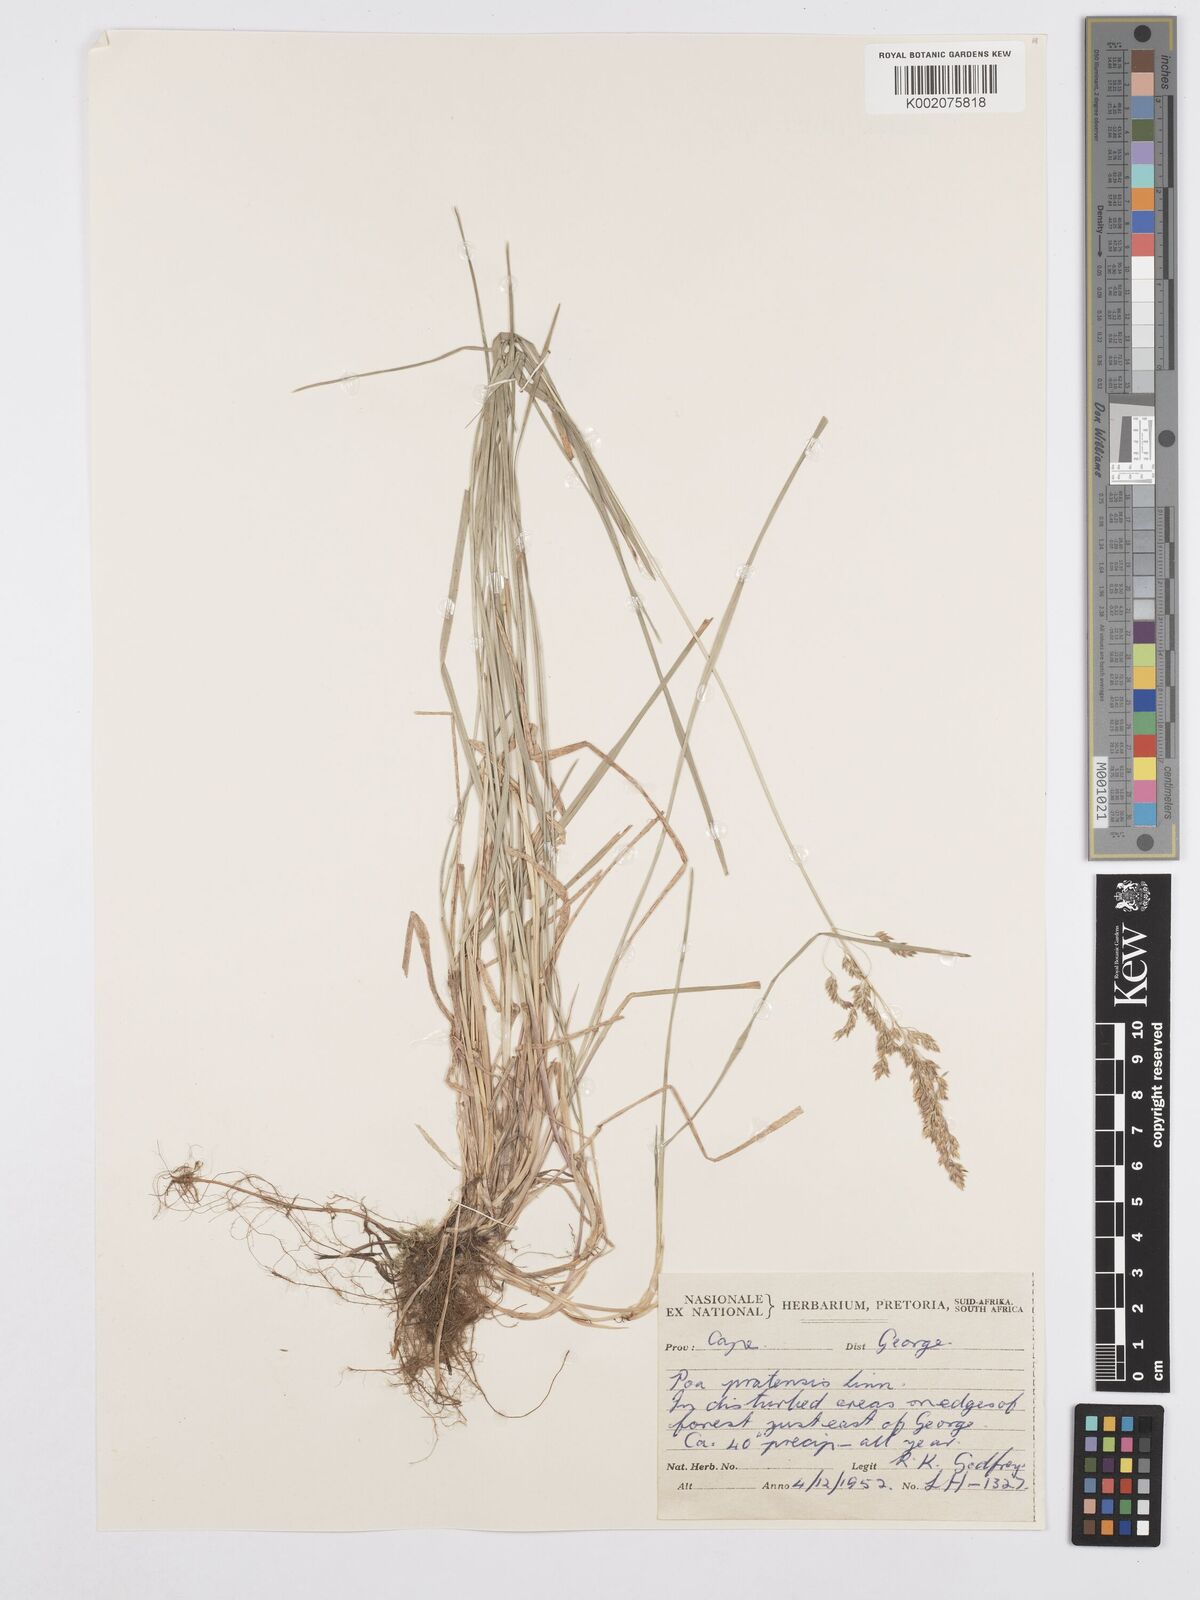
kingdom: Plantae
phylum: Tracheophyta
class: Liliopsida
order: Poales
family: Poaceae
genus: Poa
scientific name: Poa pratensis
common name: Kentucky bluegrass
